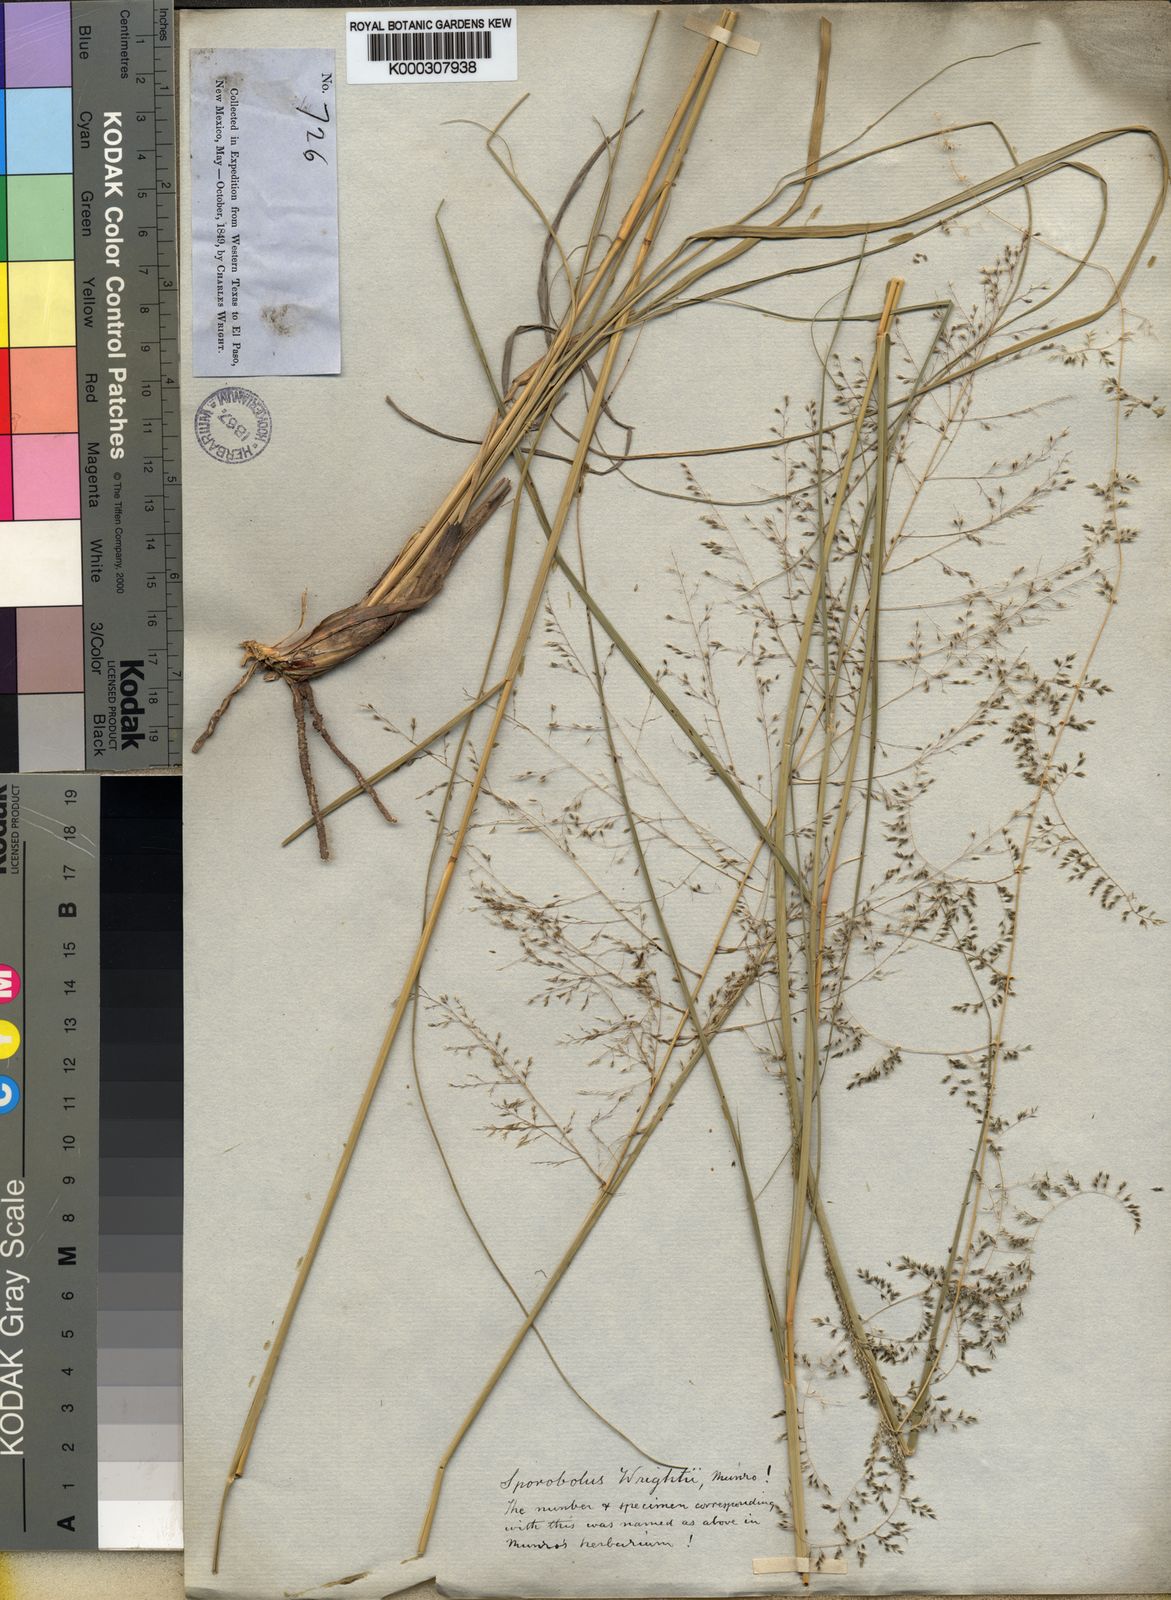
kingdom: Plantae
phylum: Tracheophyta
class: Liliopsida
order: Poales
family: Poaceae
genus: Sporobolus
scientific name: Sporobolus wrightii
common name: Big alkali sacaton
